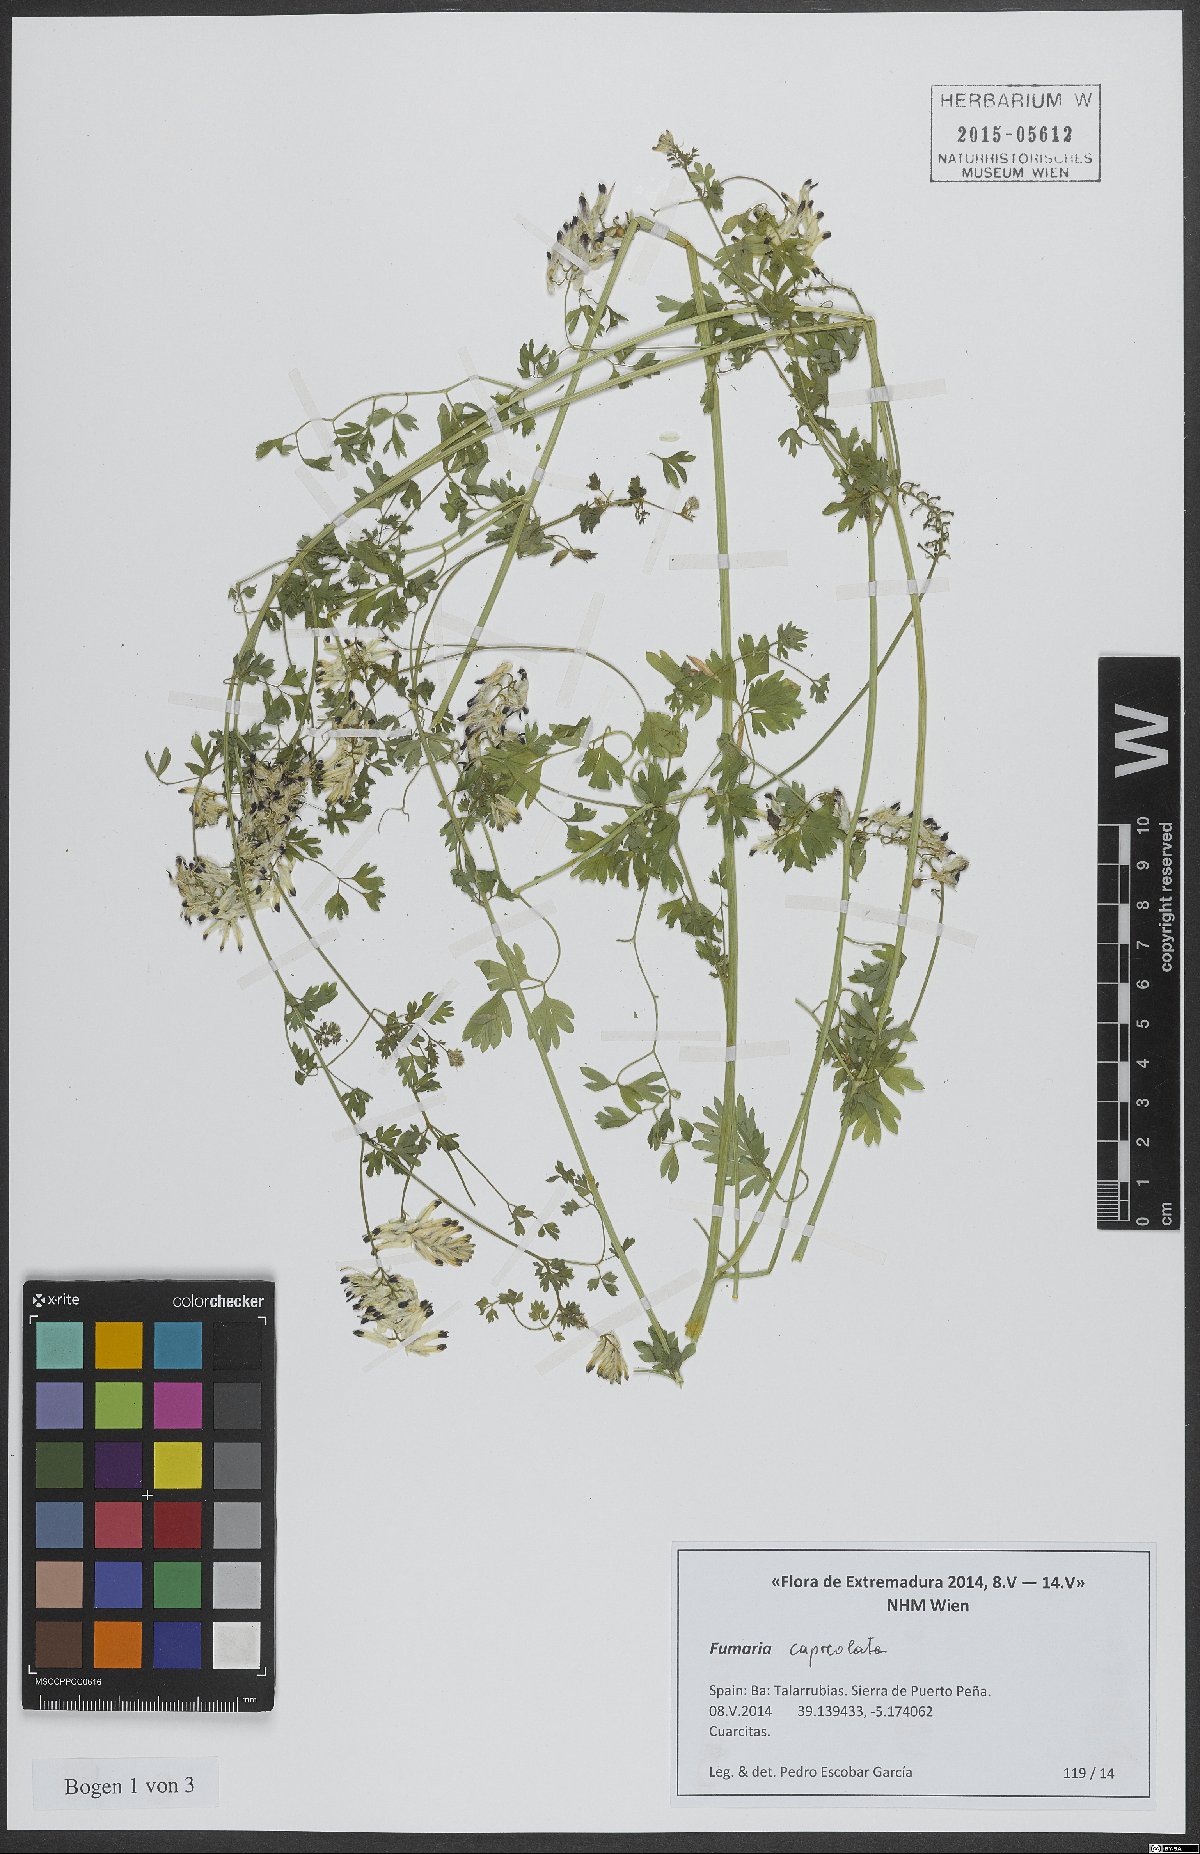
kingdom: Plantae
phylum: Tracheophyta
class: Magnoliopsida
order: Ranunculales
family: Papaveraceae
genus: Fumaria
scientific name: Fumaria capreolata
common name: White ramping-fumitory
